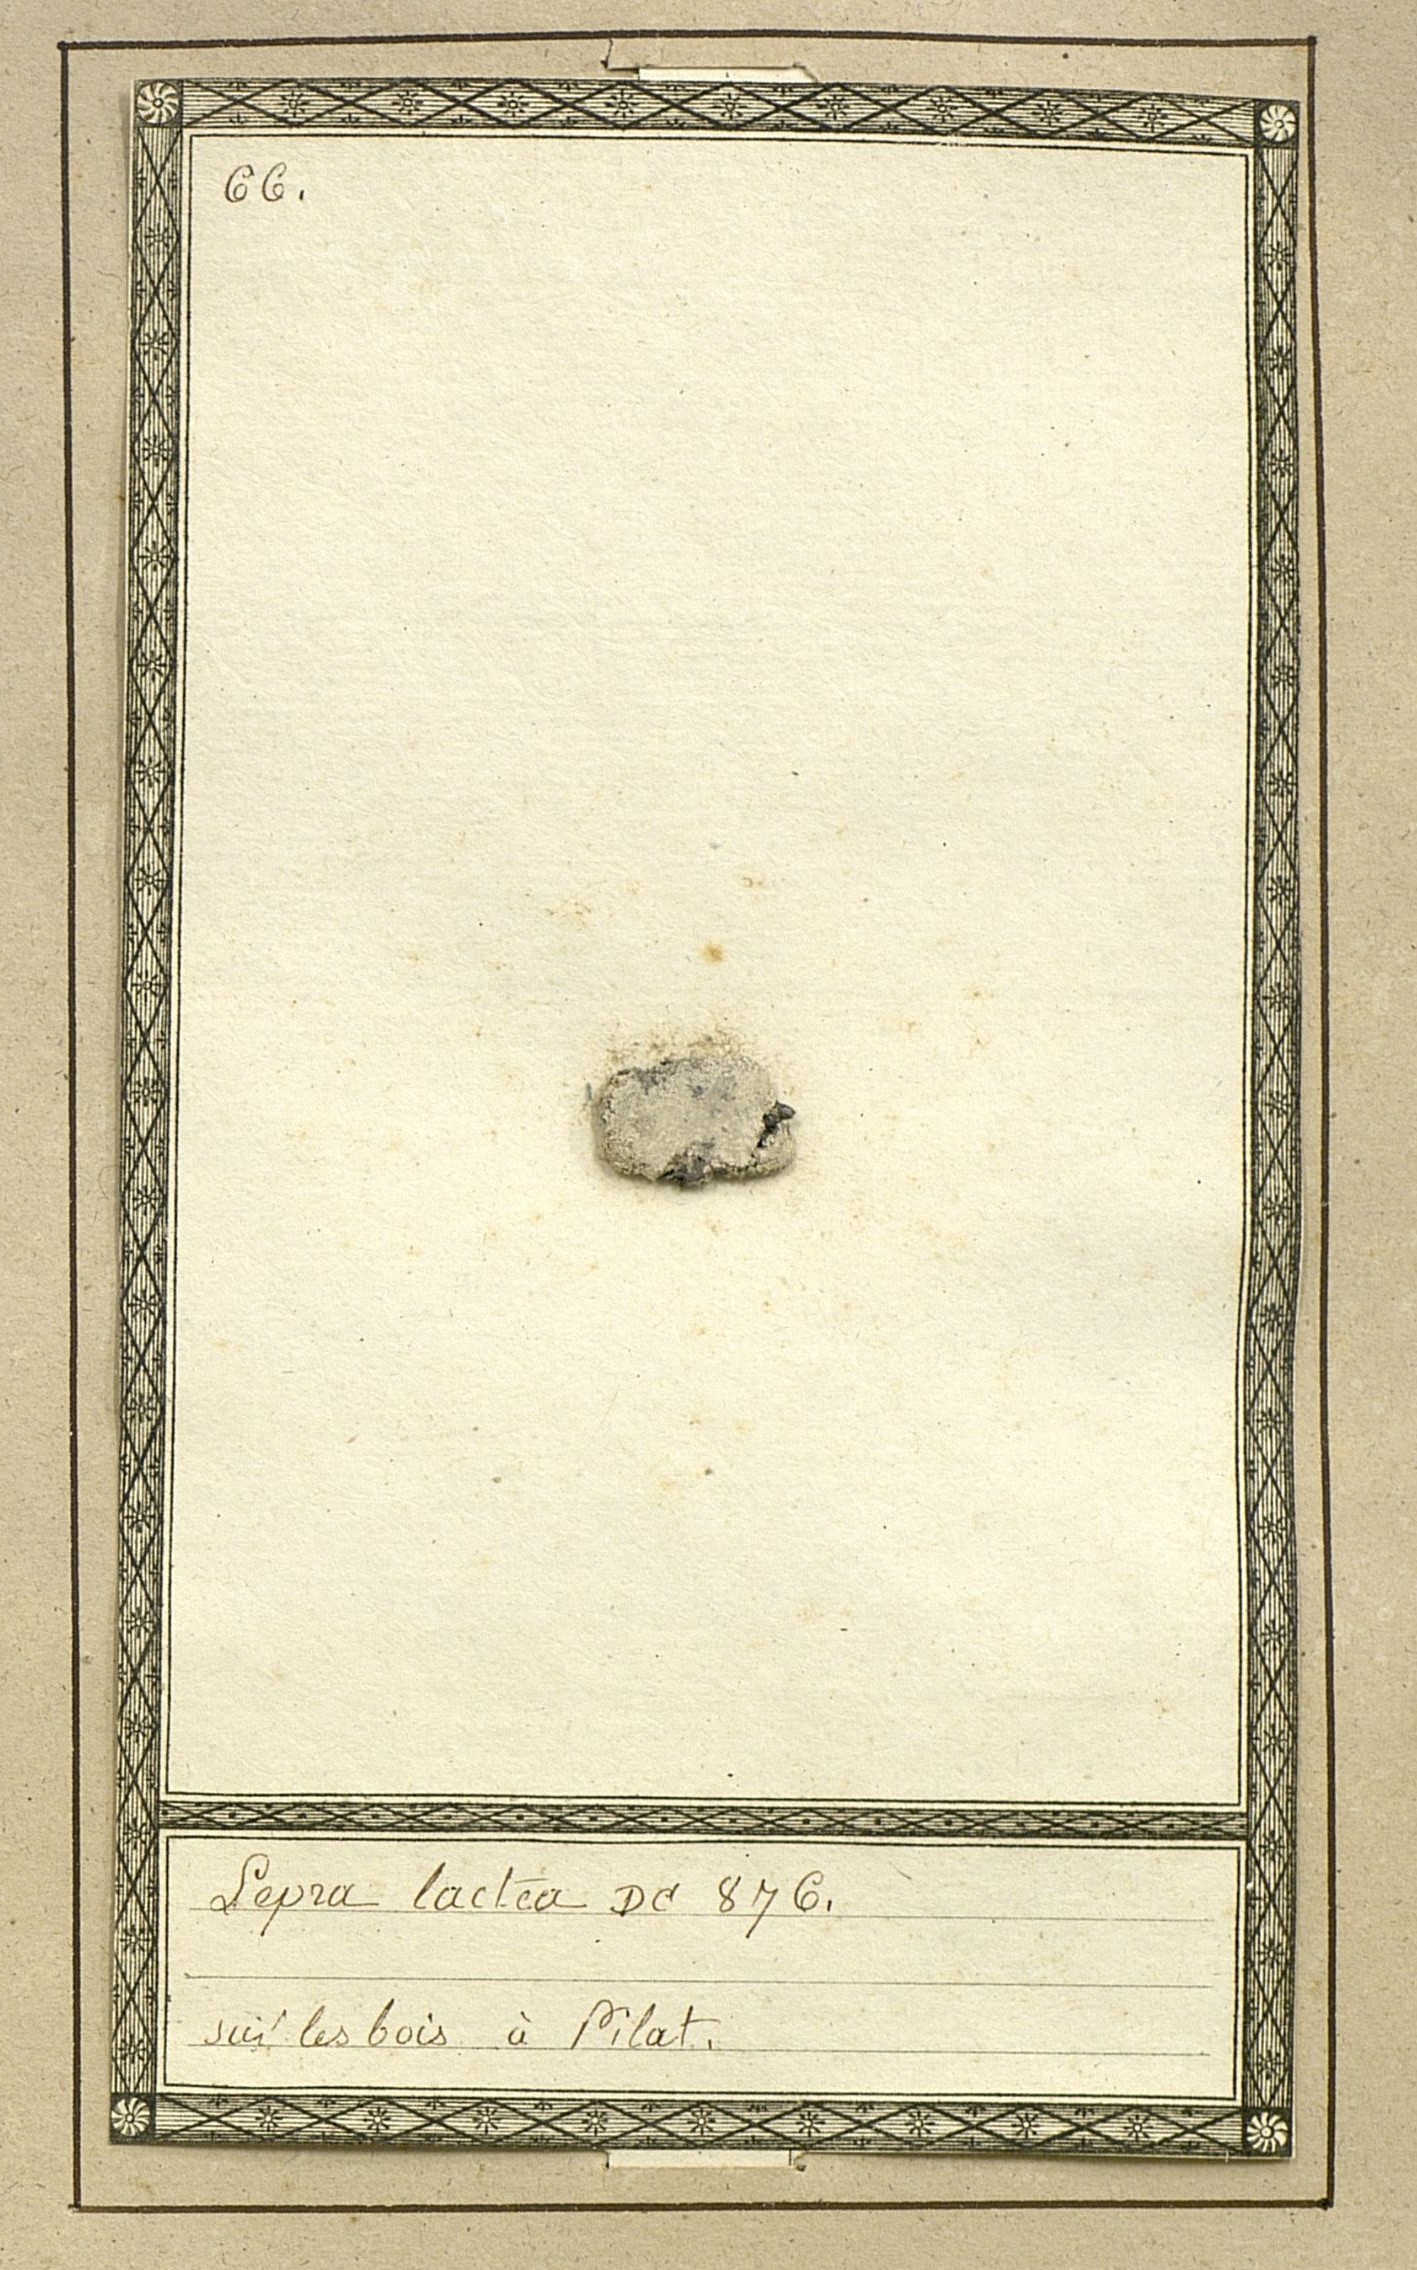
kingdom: Fungi
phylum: Ascomycota
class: Lecanoromycetes
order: Pertusariales
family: Varicellariaceae
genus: Varicellaria
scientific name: Varicellaria lactea
